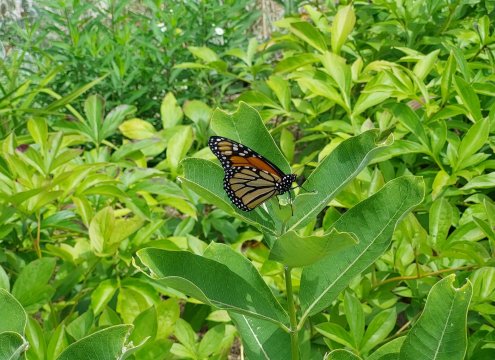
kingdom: Animalia
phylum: Arthropoda
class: Insecta
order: Lepidoptera
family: Nymphalidae
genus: Danaus
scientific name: Danaus plexippus
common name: Monarch
